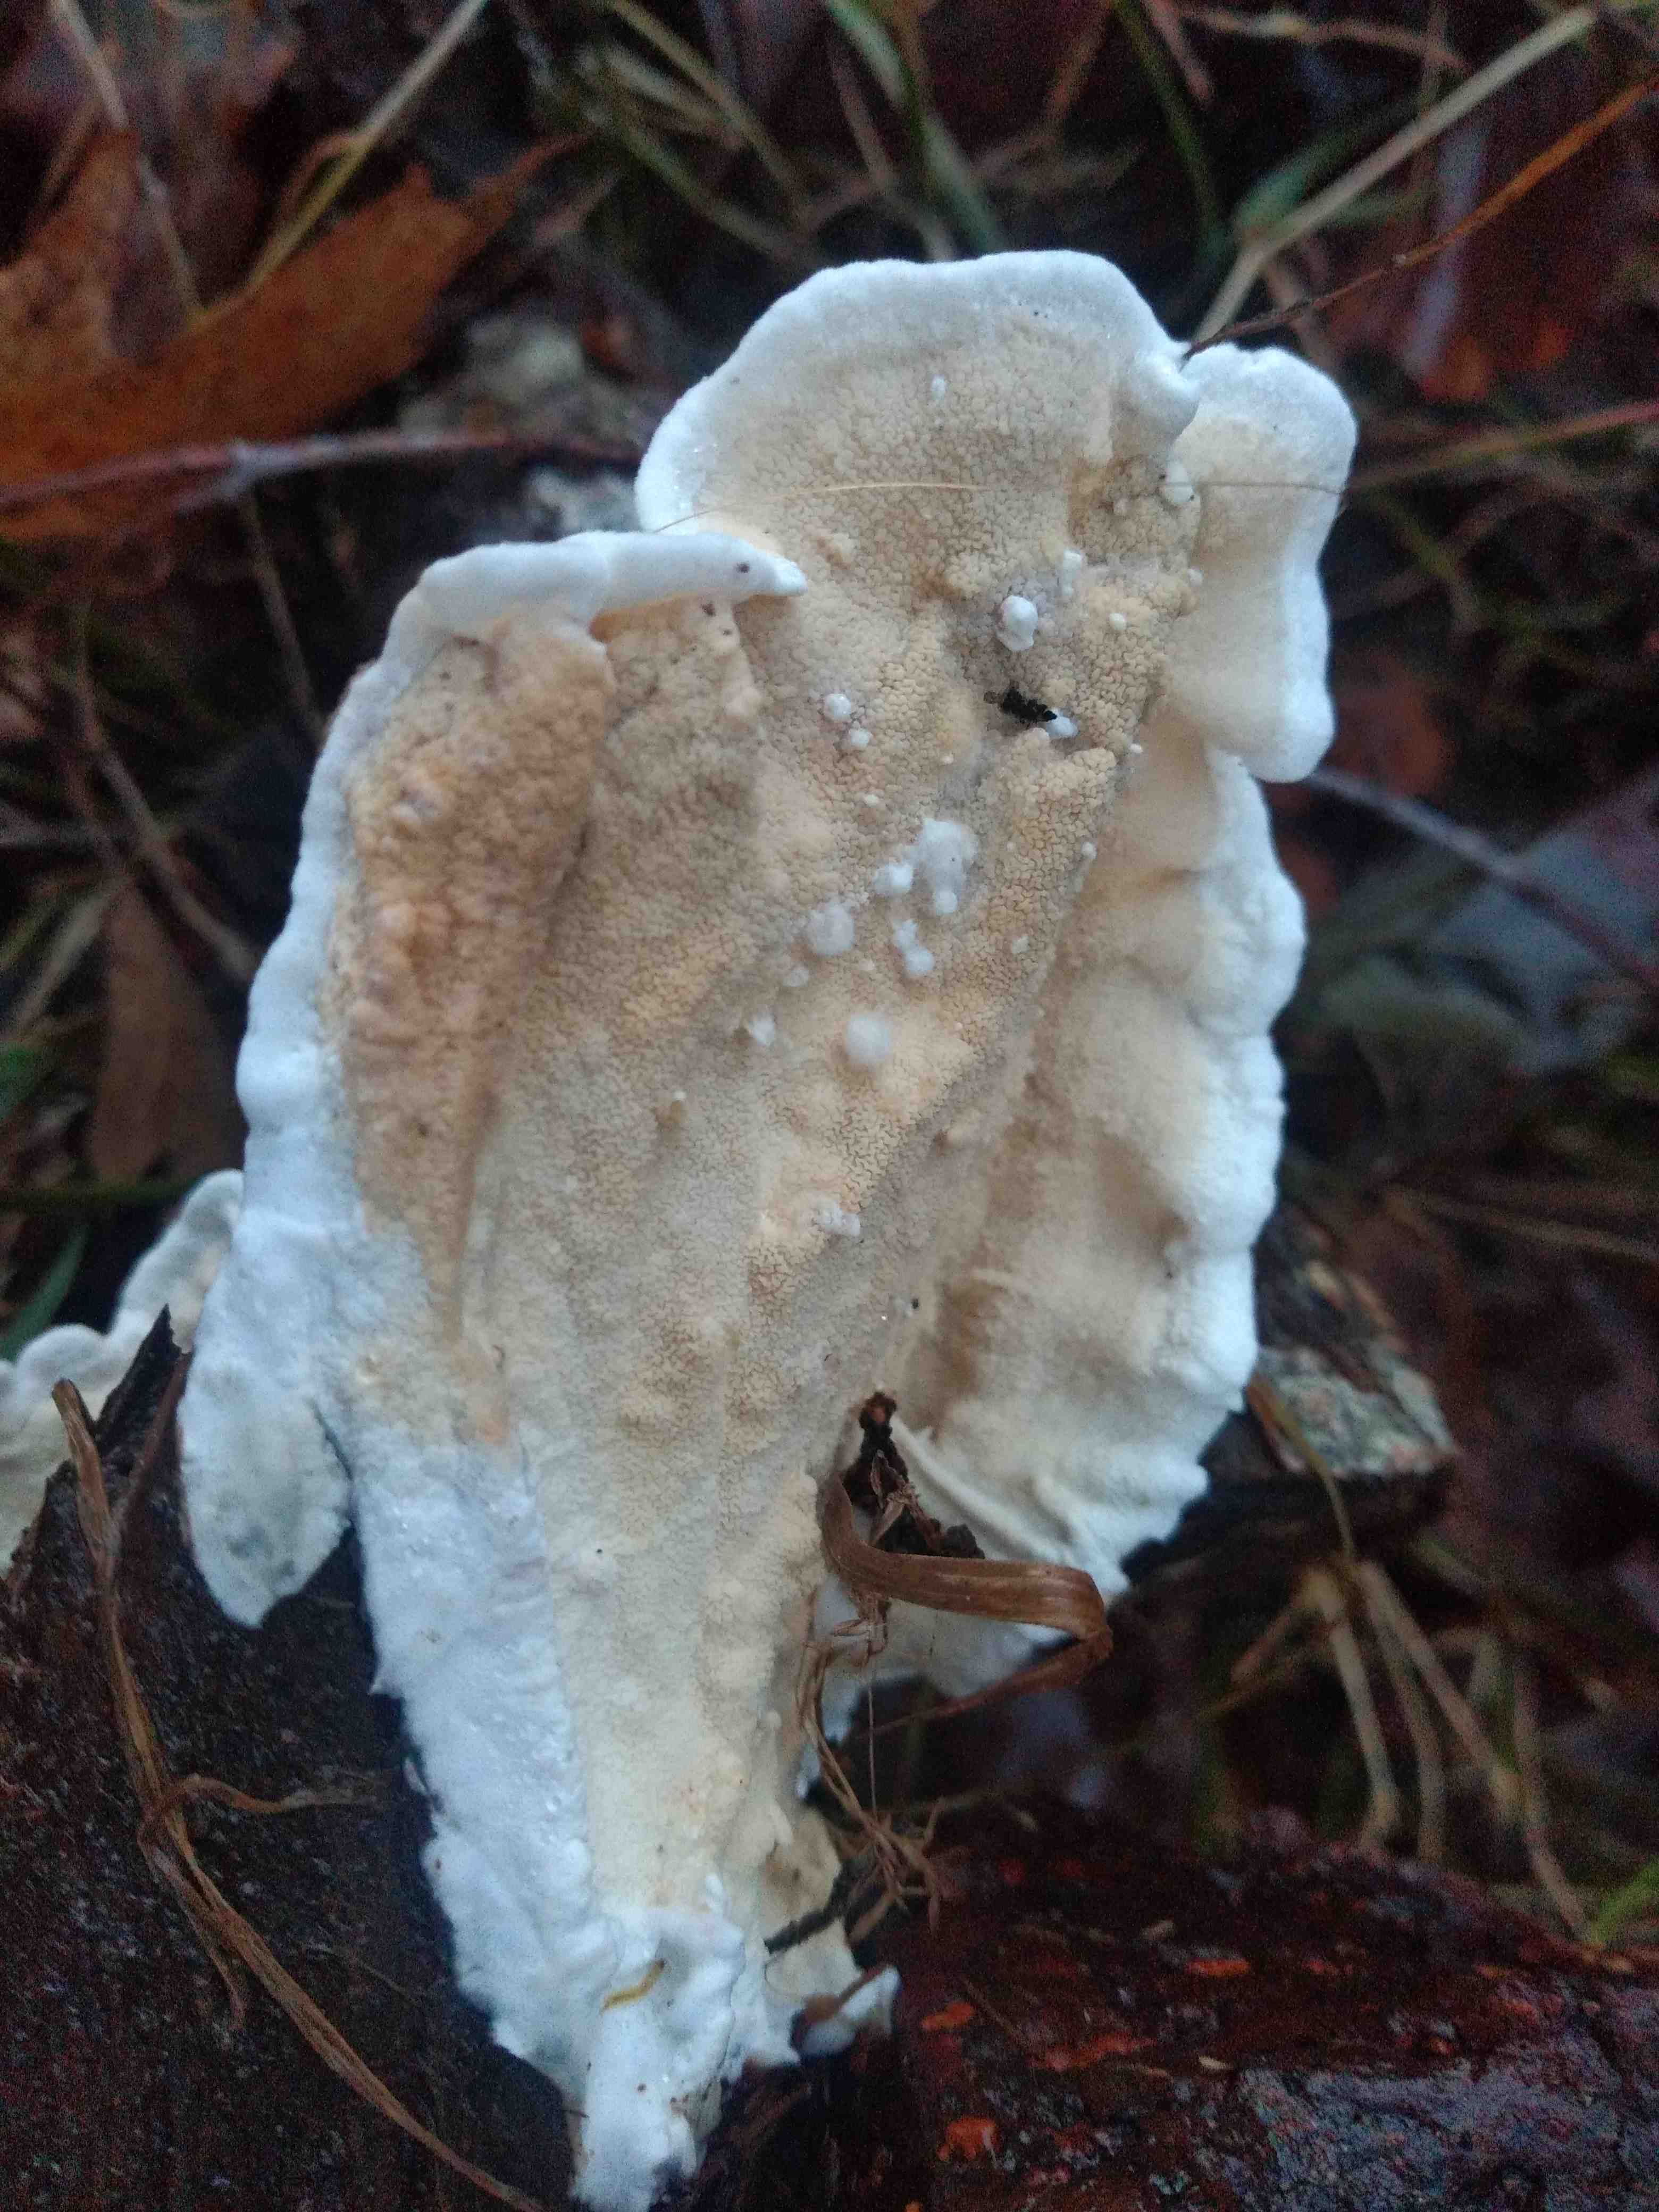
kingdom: Fungi
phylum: Basidiomycota
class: Agaricomycetes
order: Polyporales
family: Irpicaceae
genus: Byssomerulius
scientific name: Byssomerulius corium
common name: læder-åresvamp
